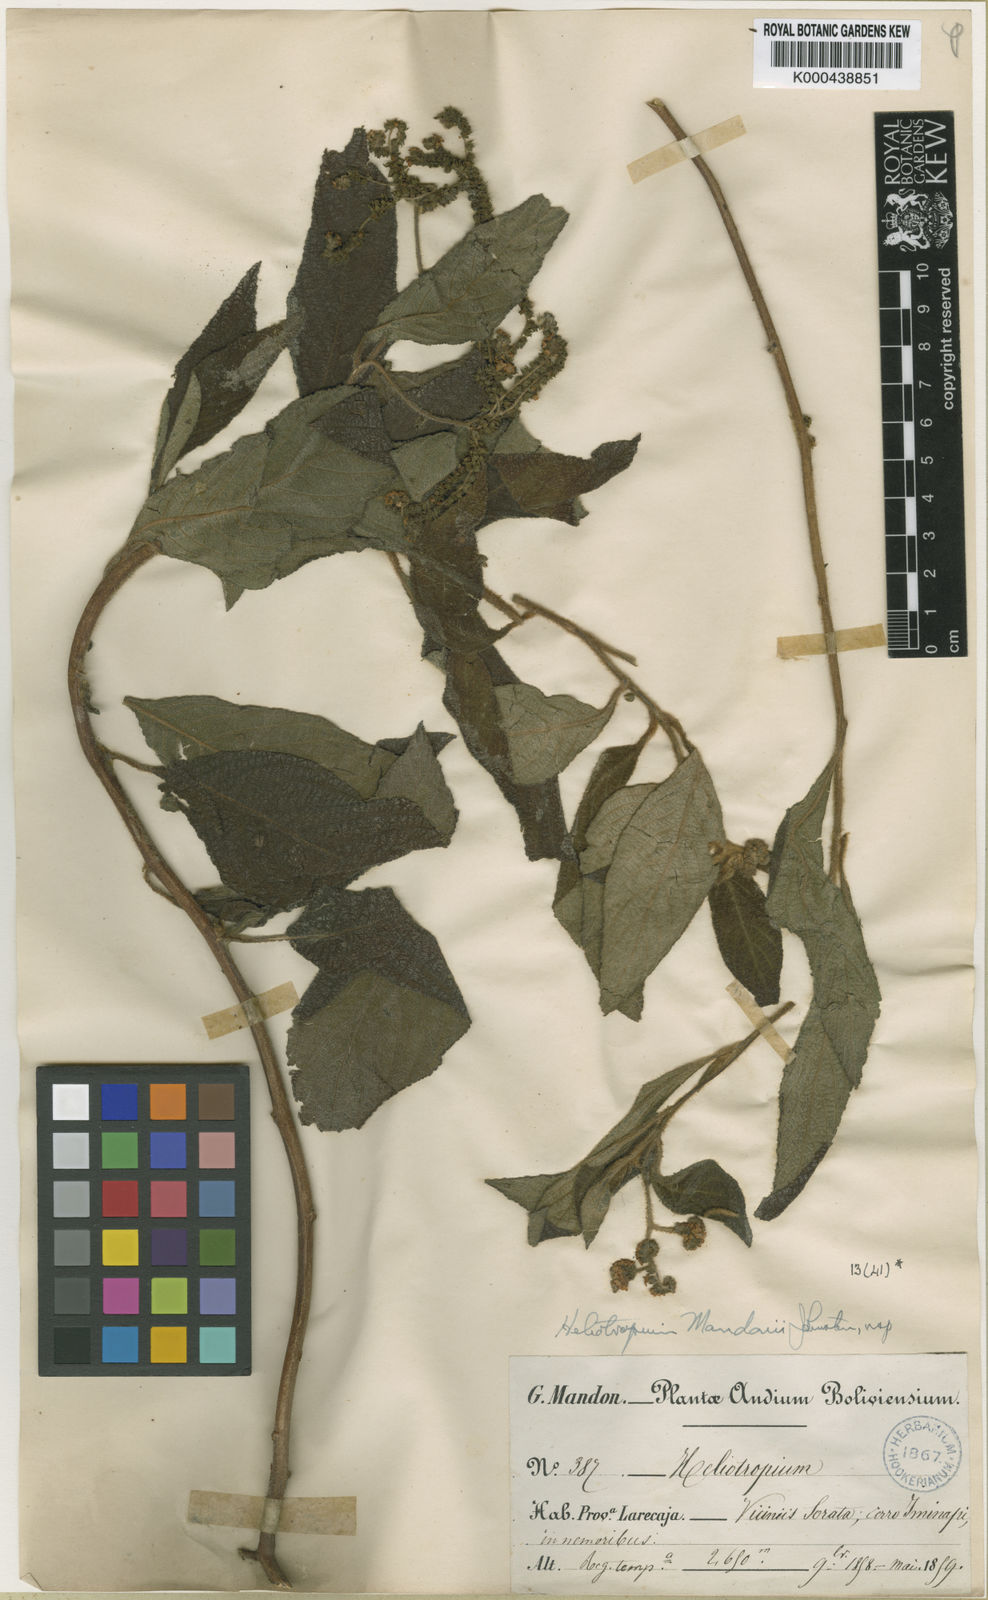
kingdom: Plantae
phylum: Tracheophyta
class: Magnoliopsida
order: Boraginales
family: Heliotropiaceae
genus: Heliotropium
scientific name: Heliotropium mandonii
